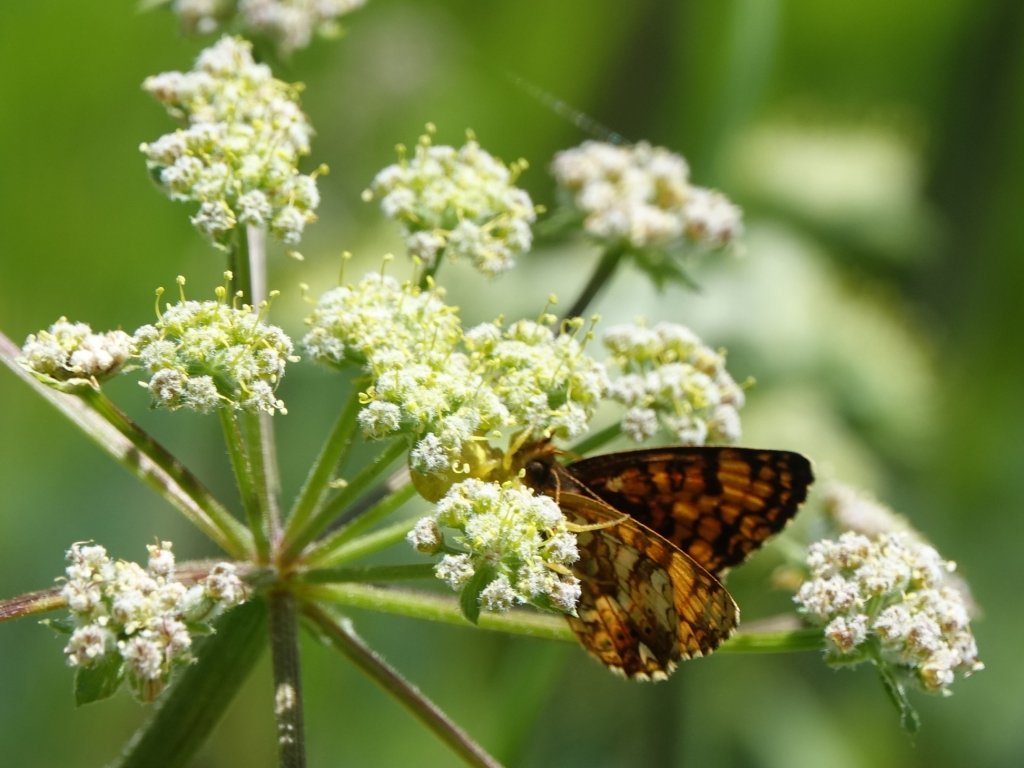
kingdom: Animalia
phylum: Arthropoda
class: Insecta
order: Lepidoptera
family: Nymphalidae
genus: Eresia
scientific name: Eresia aveyrona
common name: Mylitta Crescent
